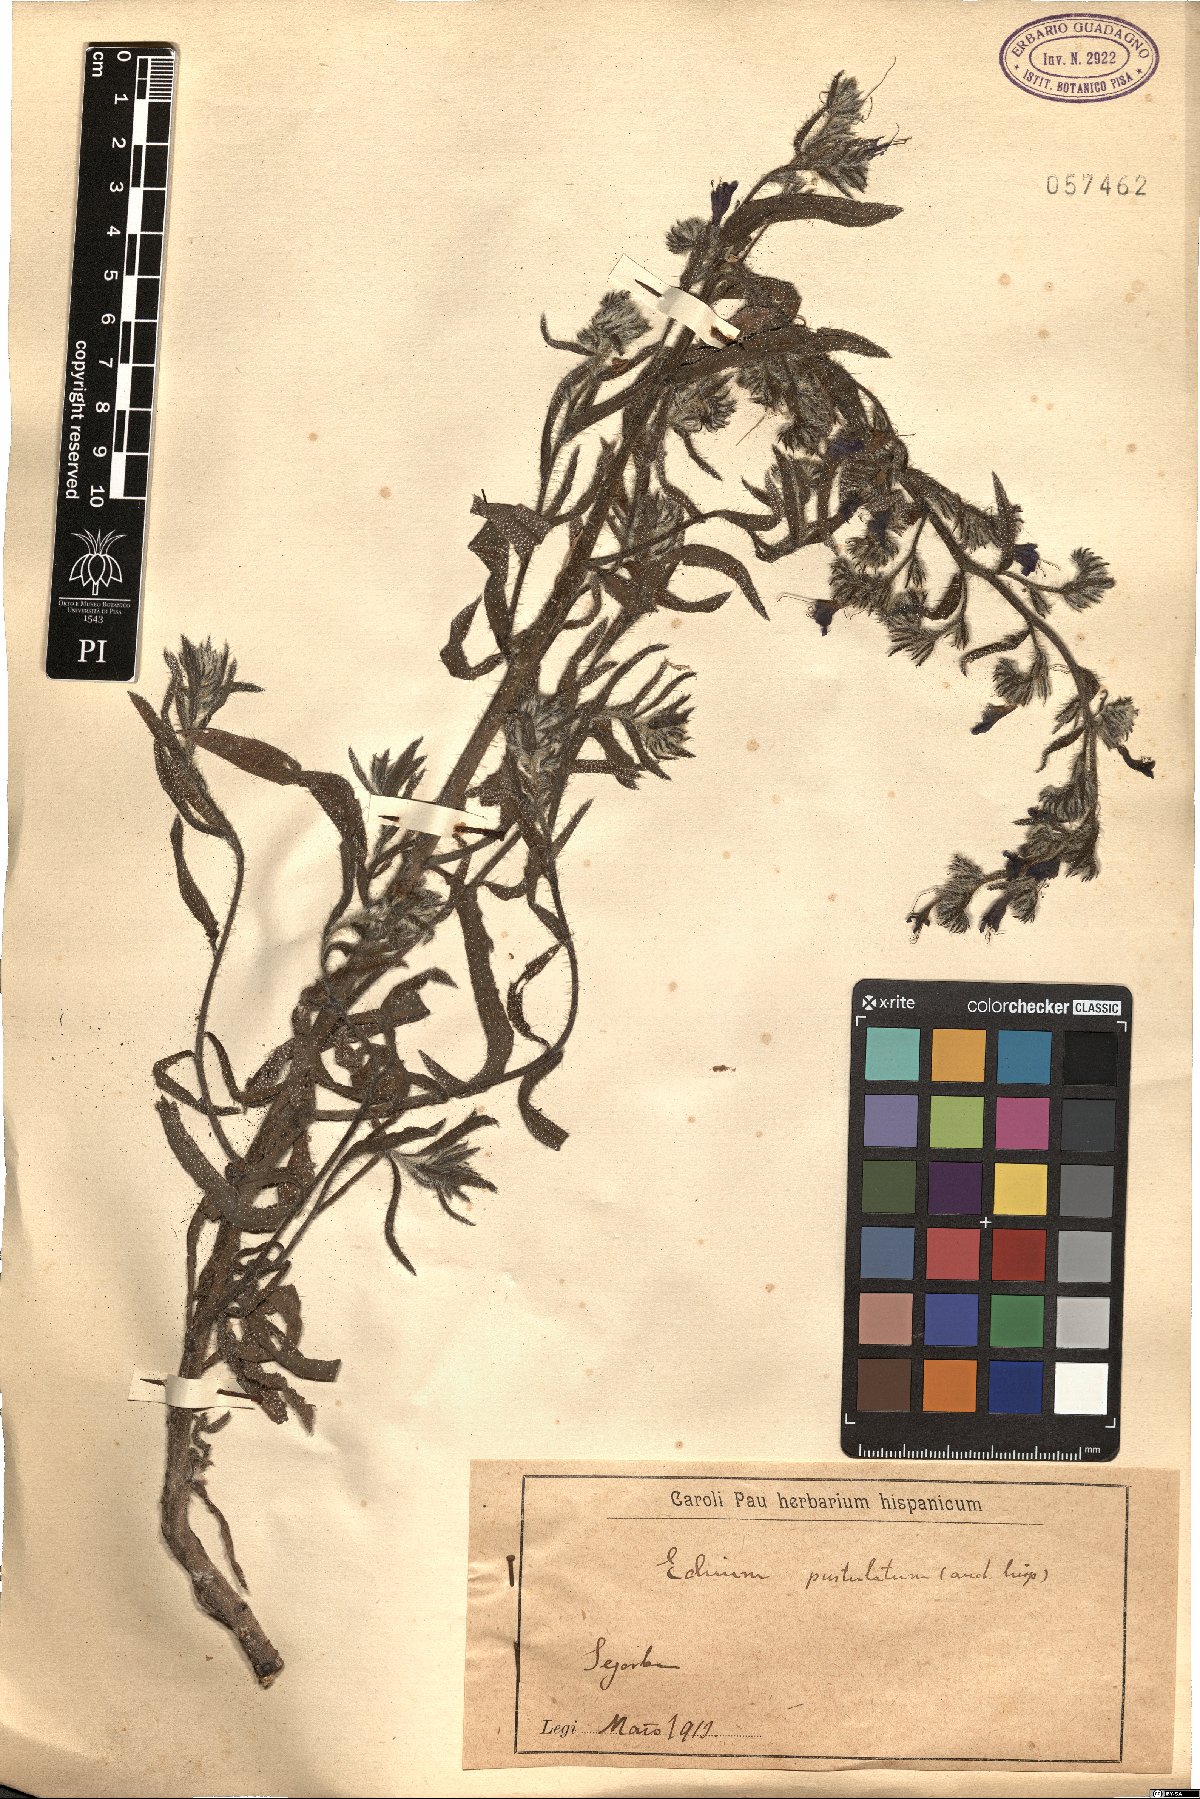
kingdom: Plantae
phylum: Tracheophyta
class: Magnoliopsida
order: Boraginales
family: Boraginaceae
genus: Echium
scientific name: Echium vulgare
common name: Common viper's bugloss
